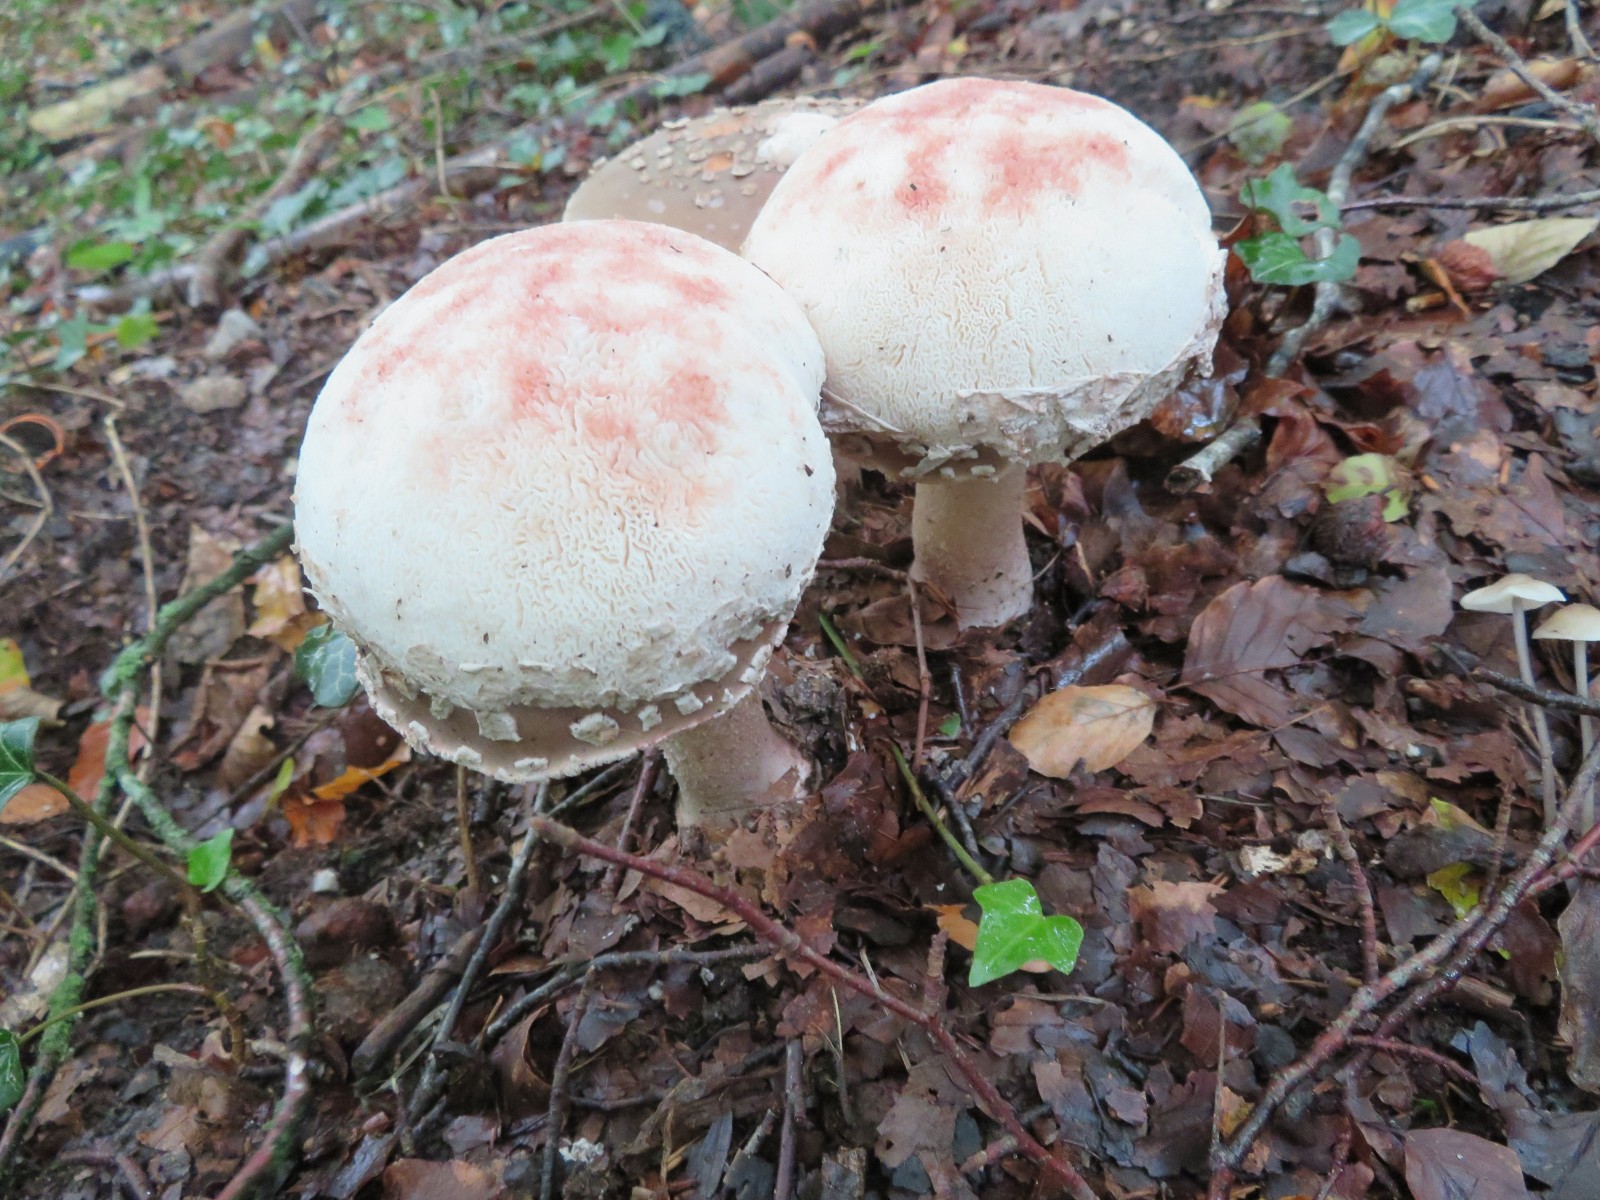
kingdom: Fungi
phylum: Basidiomycota
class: Agaricomycetes
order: Agaricales
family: Amanitaceae
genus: Amanita
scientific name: Amanita rubescens
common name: rødmende fluesvamp
